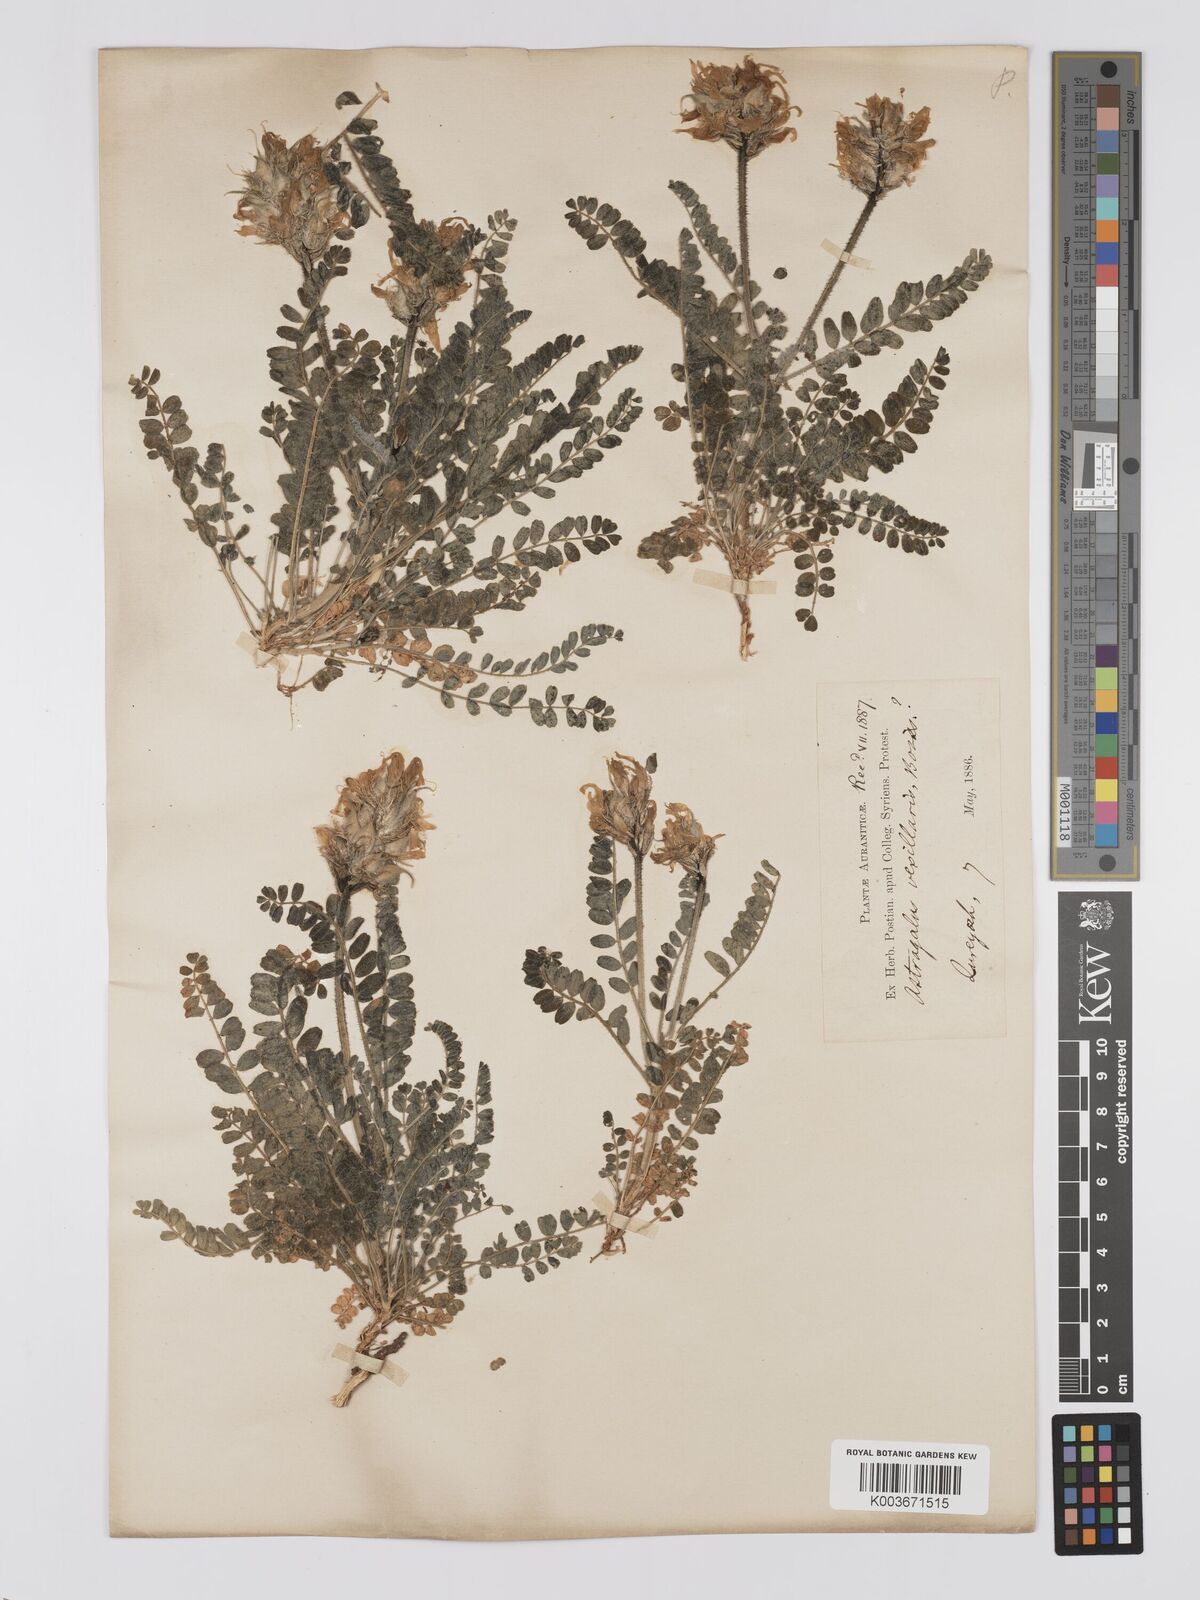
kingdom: Plantae
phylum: Tracheophyta
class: Magnoliopsida
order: Fabales
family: Fabaceae
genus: Astragalus
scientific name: Astragalus vexillaris
